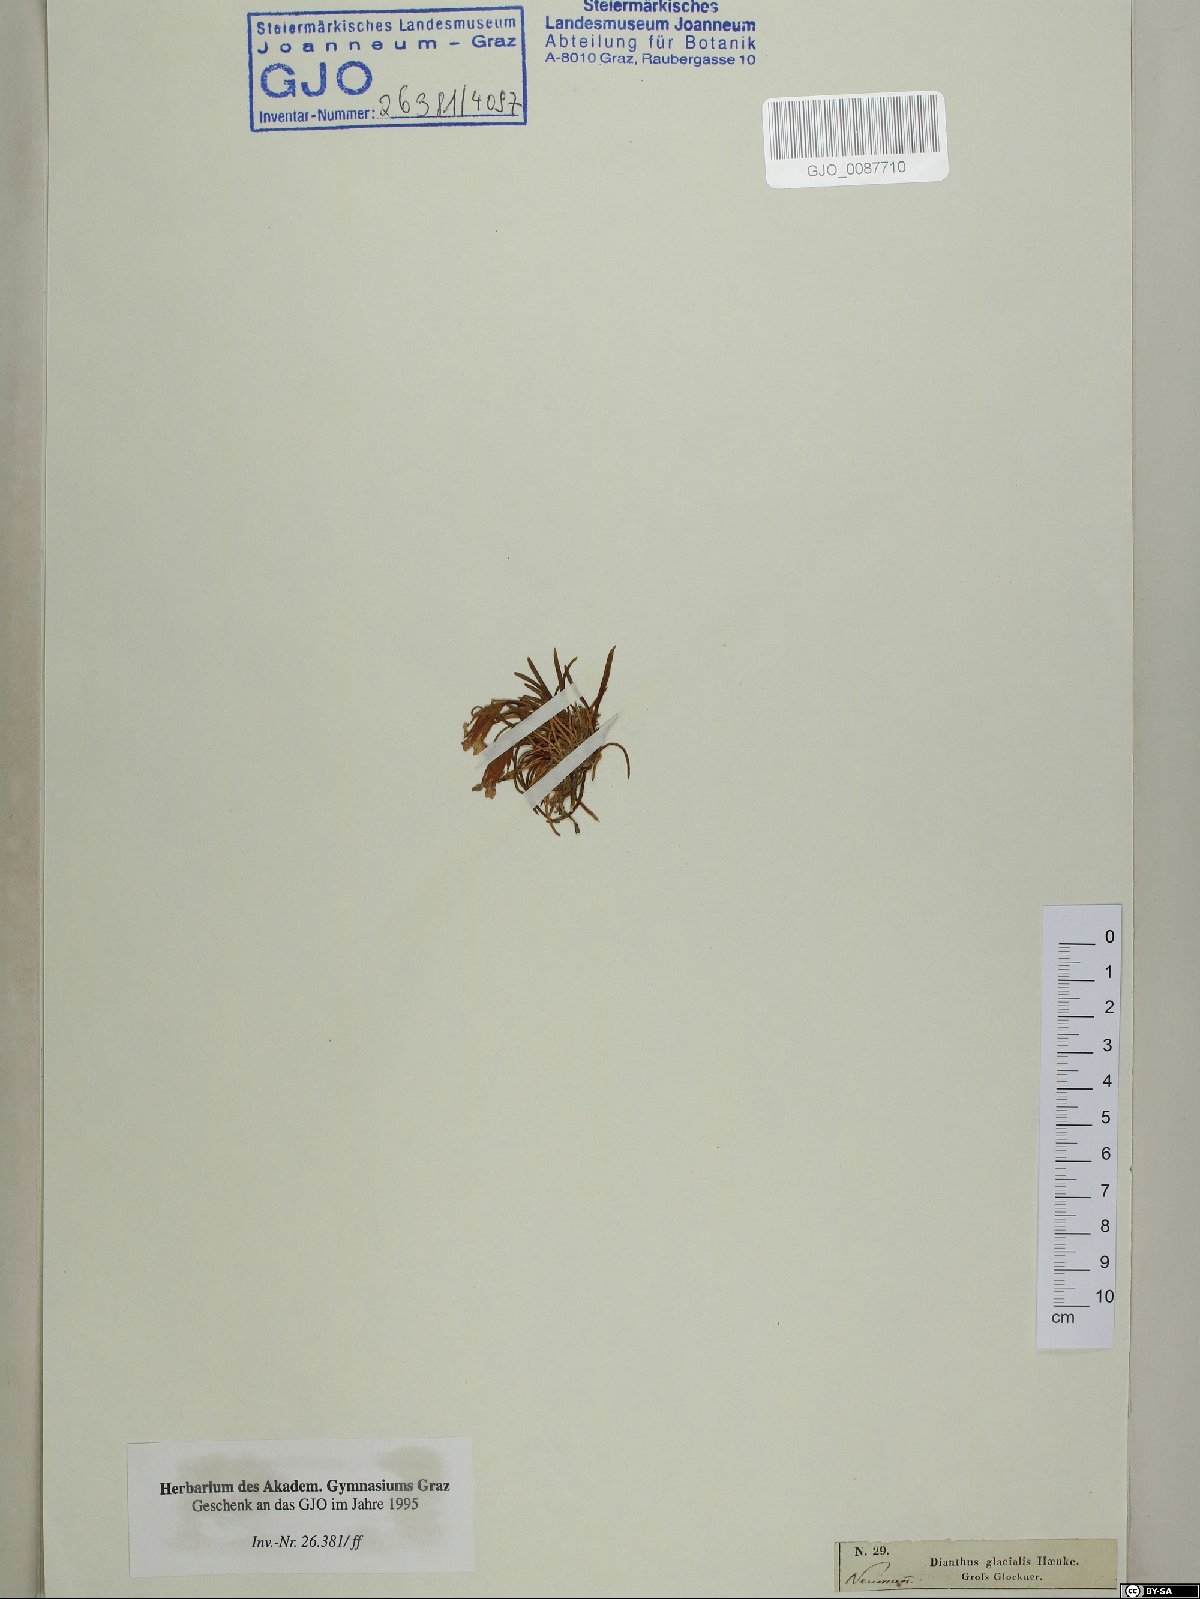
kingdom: Plantae
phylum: Tracheophyta
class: Magnoliopsida
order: Caryophyllales
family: Caryophyllaceae
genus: Dianthus
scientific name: Dianthus glacialis
